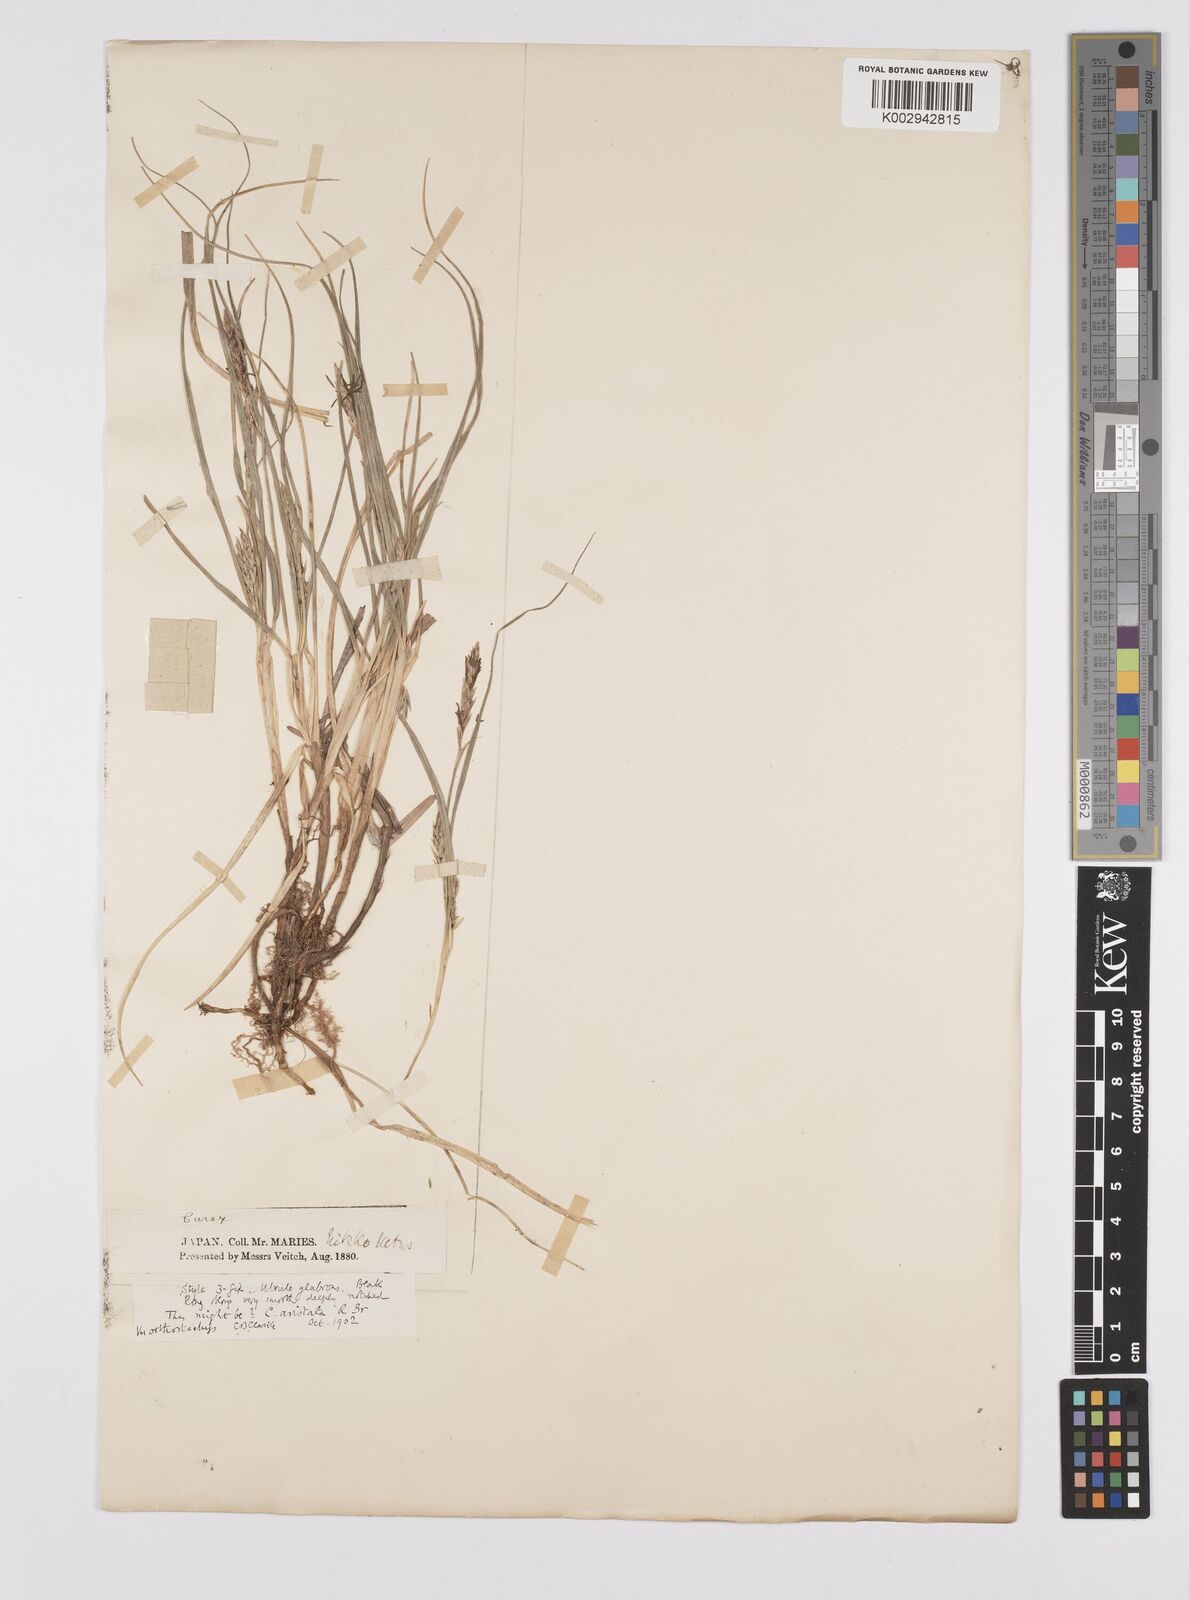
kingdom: Plantae
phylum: Tracheophyta
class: Liliopsida
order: Poales
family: Cyperaceae
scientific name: Cyperaceae
